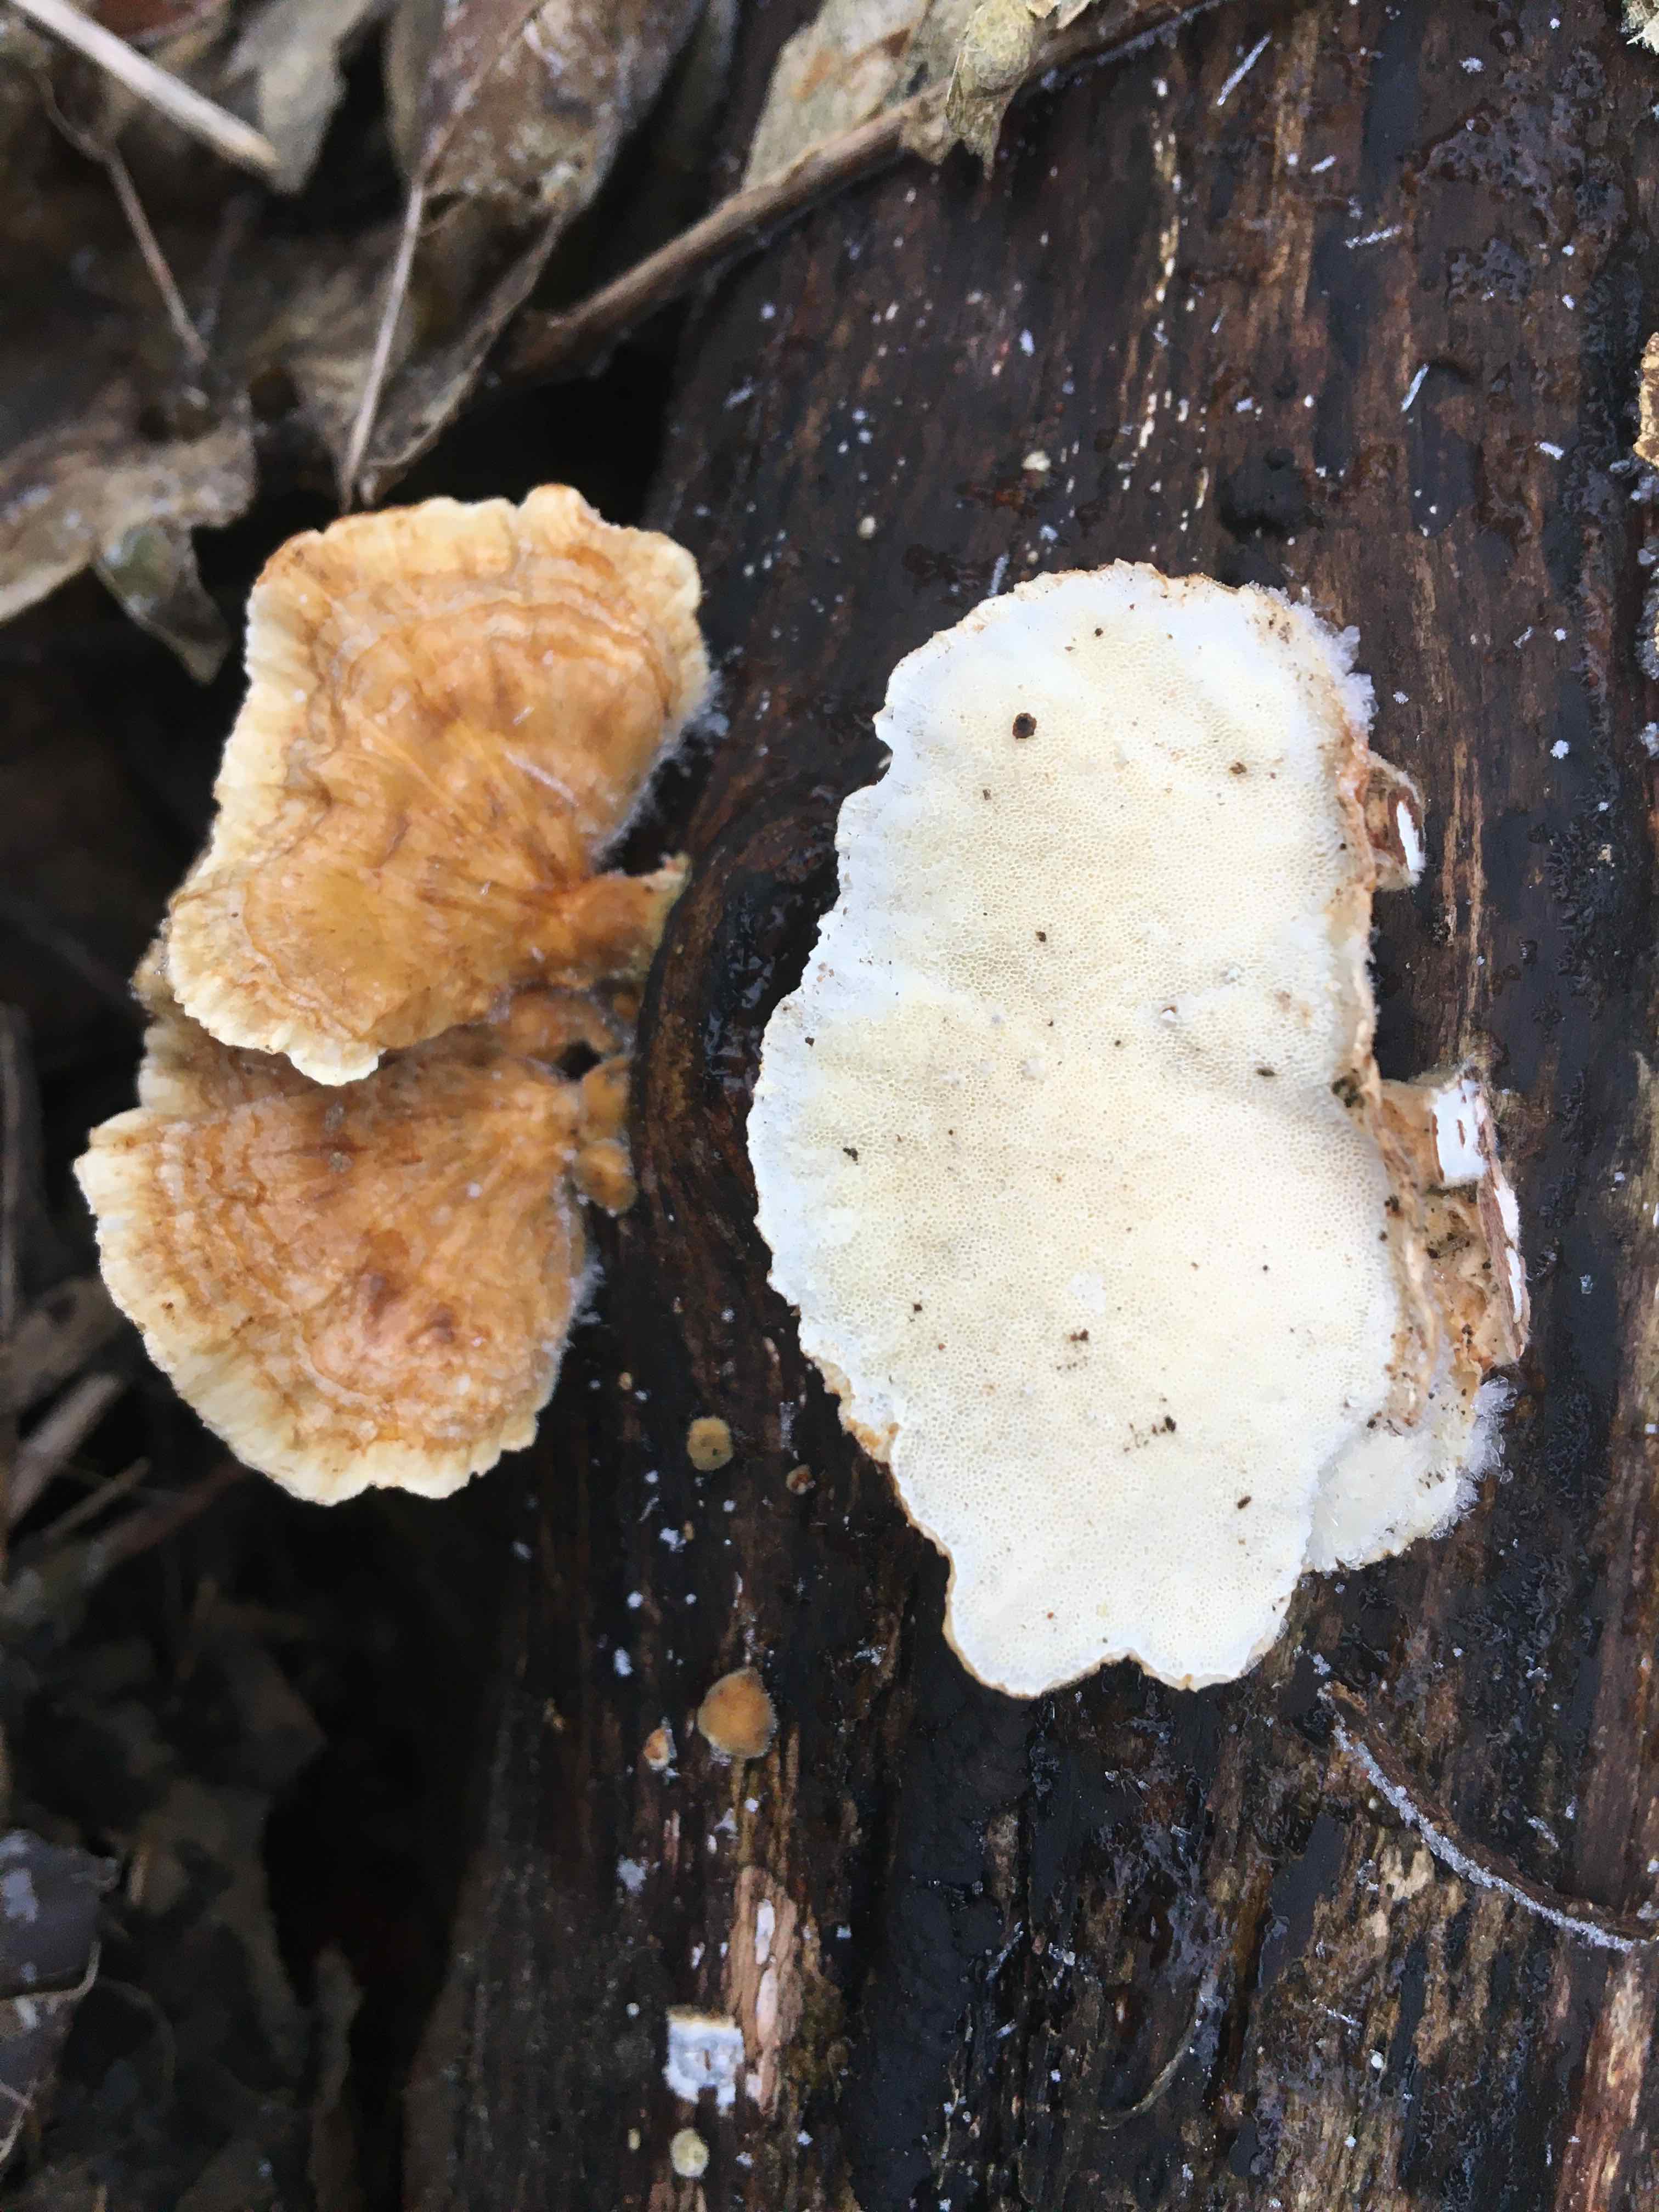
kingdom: Fungi
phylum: Basidiomycota
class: Agaricomycetes
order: Polyporales
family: Polyporaceae
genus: Trametes
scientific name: Trametes versicolor
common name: broget læderporesvamp
